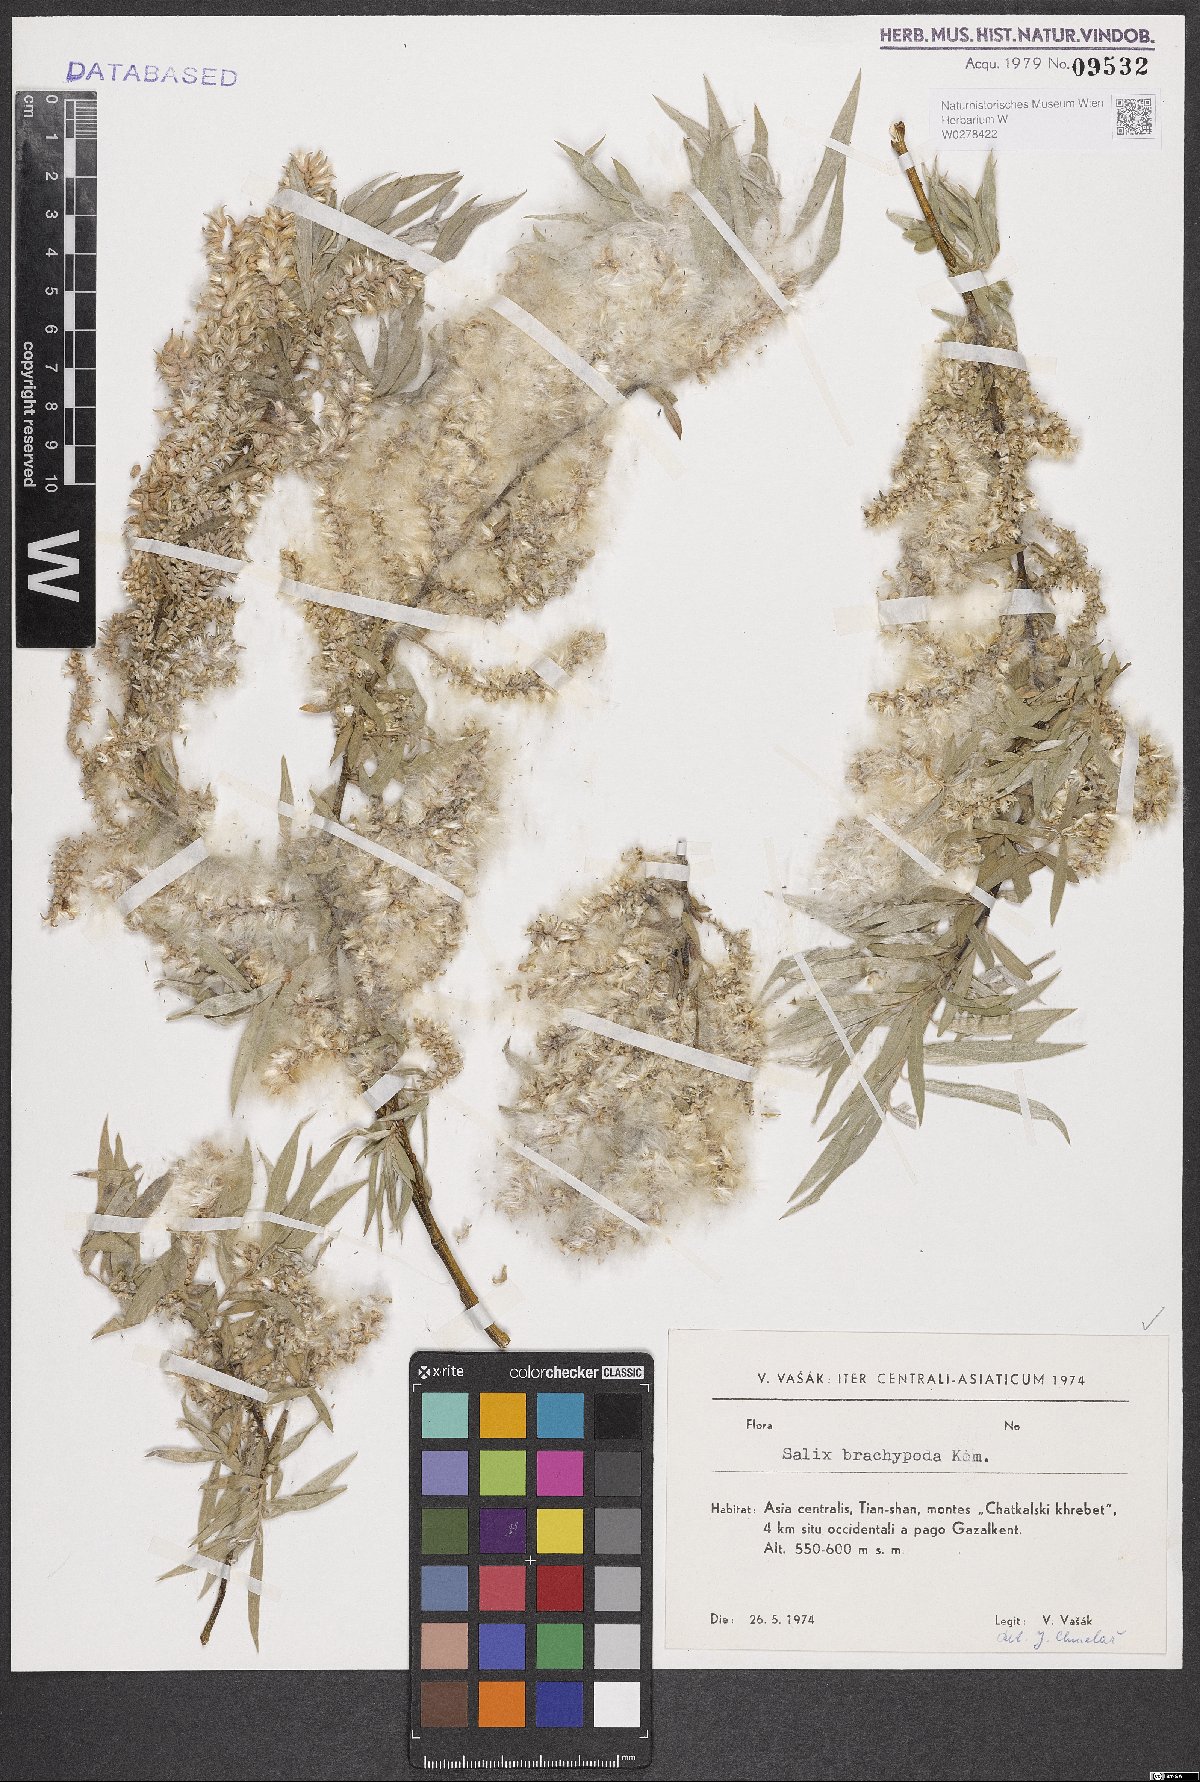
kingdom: Plantae
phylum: Tracheophyta
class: Magnoliopsida
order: Malpighiales
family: Salicaceae
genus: Salix
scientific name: Salix brachypoda
